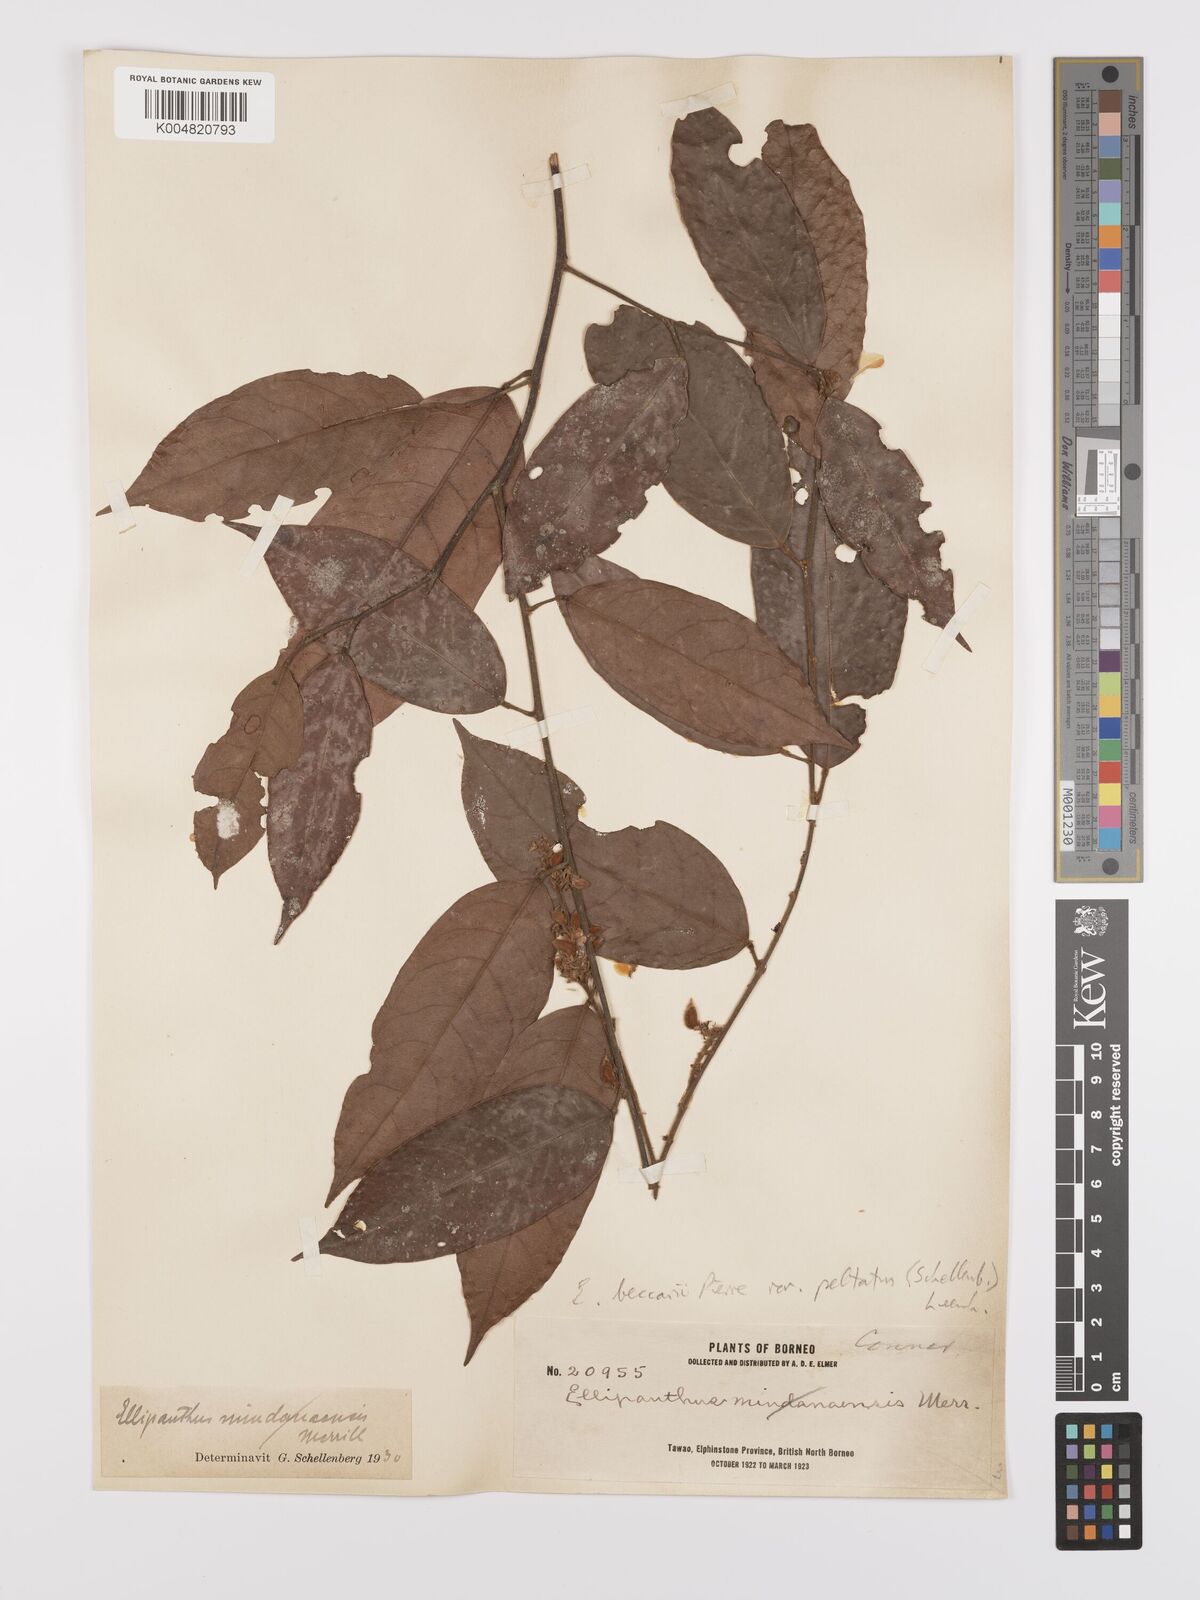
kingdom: Plantae
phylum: Tracheophyta
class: Magnoliopsida
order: Oxalidales
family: Connaraceae
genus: Ellipanthus
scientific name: Ellipanthus beccarii
